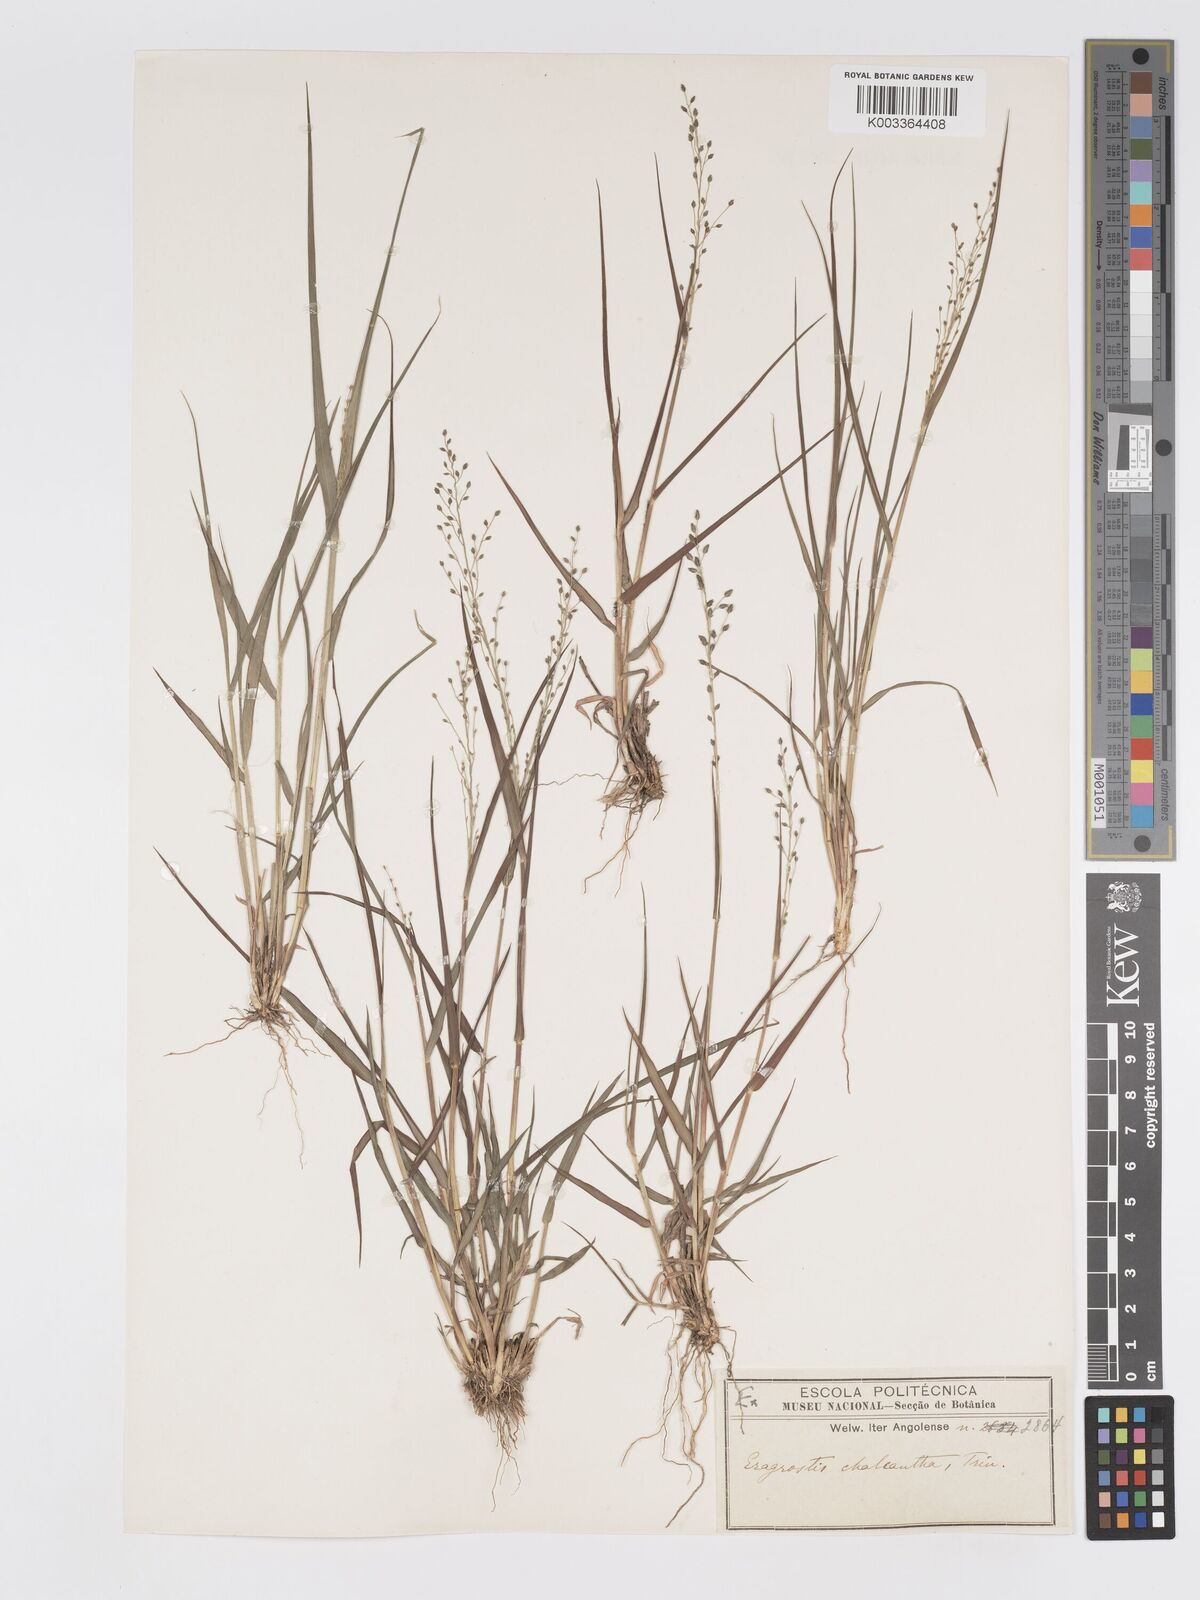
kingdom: Plantae
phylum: Tracheophyta
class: Liliopsida
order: Poales
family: Poaceae
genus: Eragrostis
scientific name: Eragrostis racemosa
